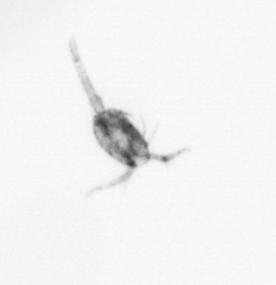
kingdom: Animalia
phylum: Arthropoda
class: Copepoda
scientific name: Copepoda
